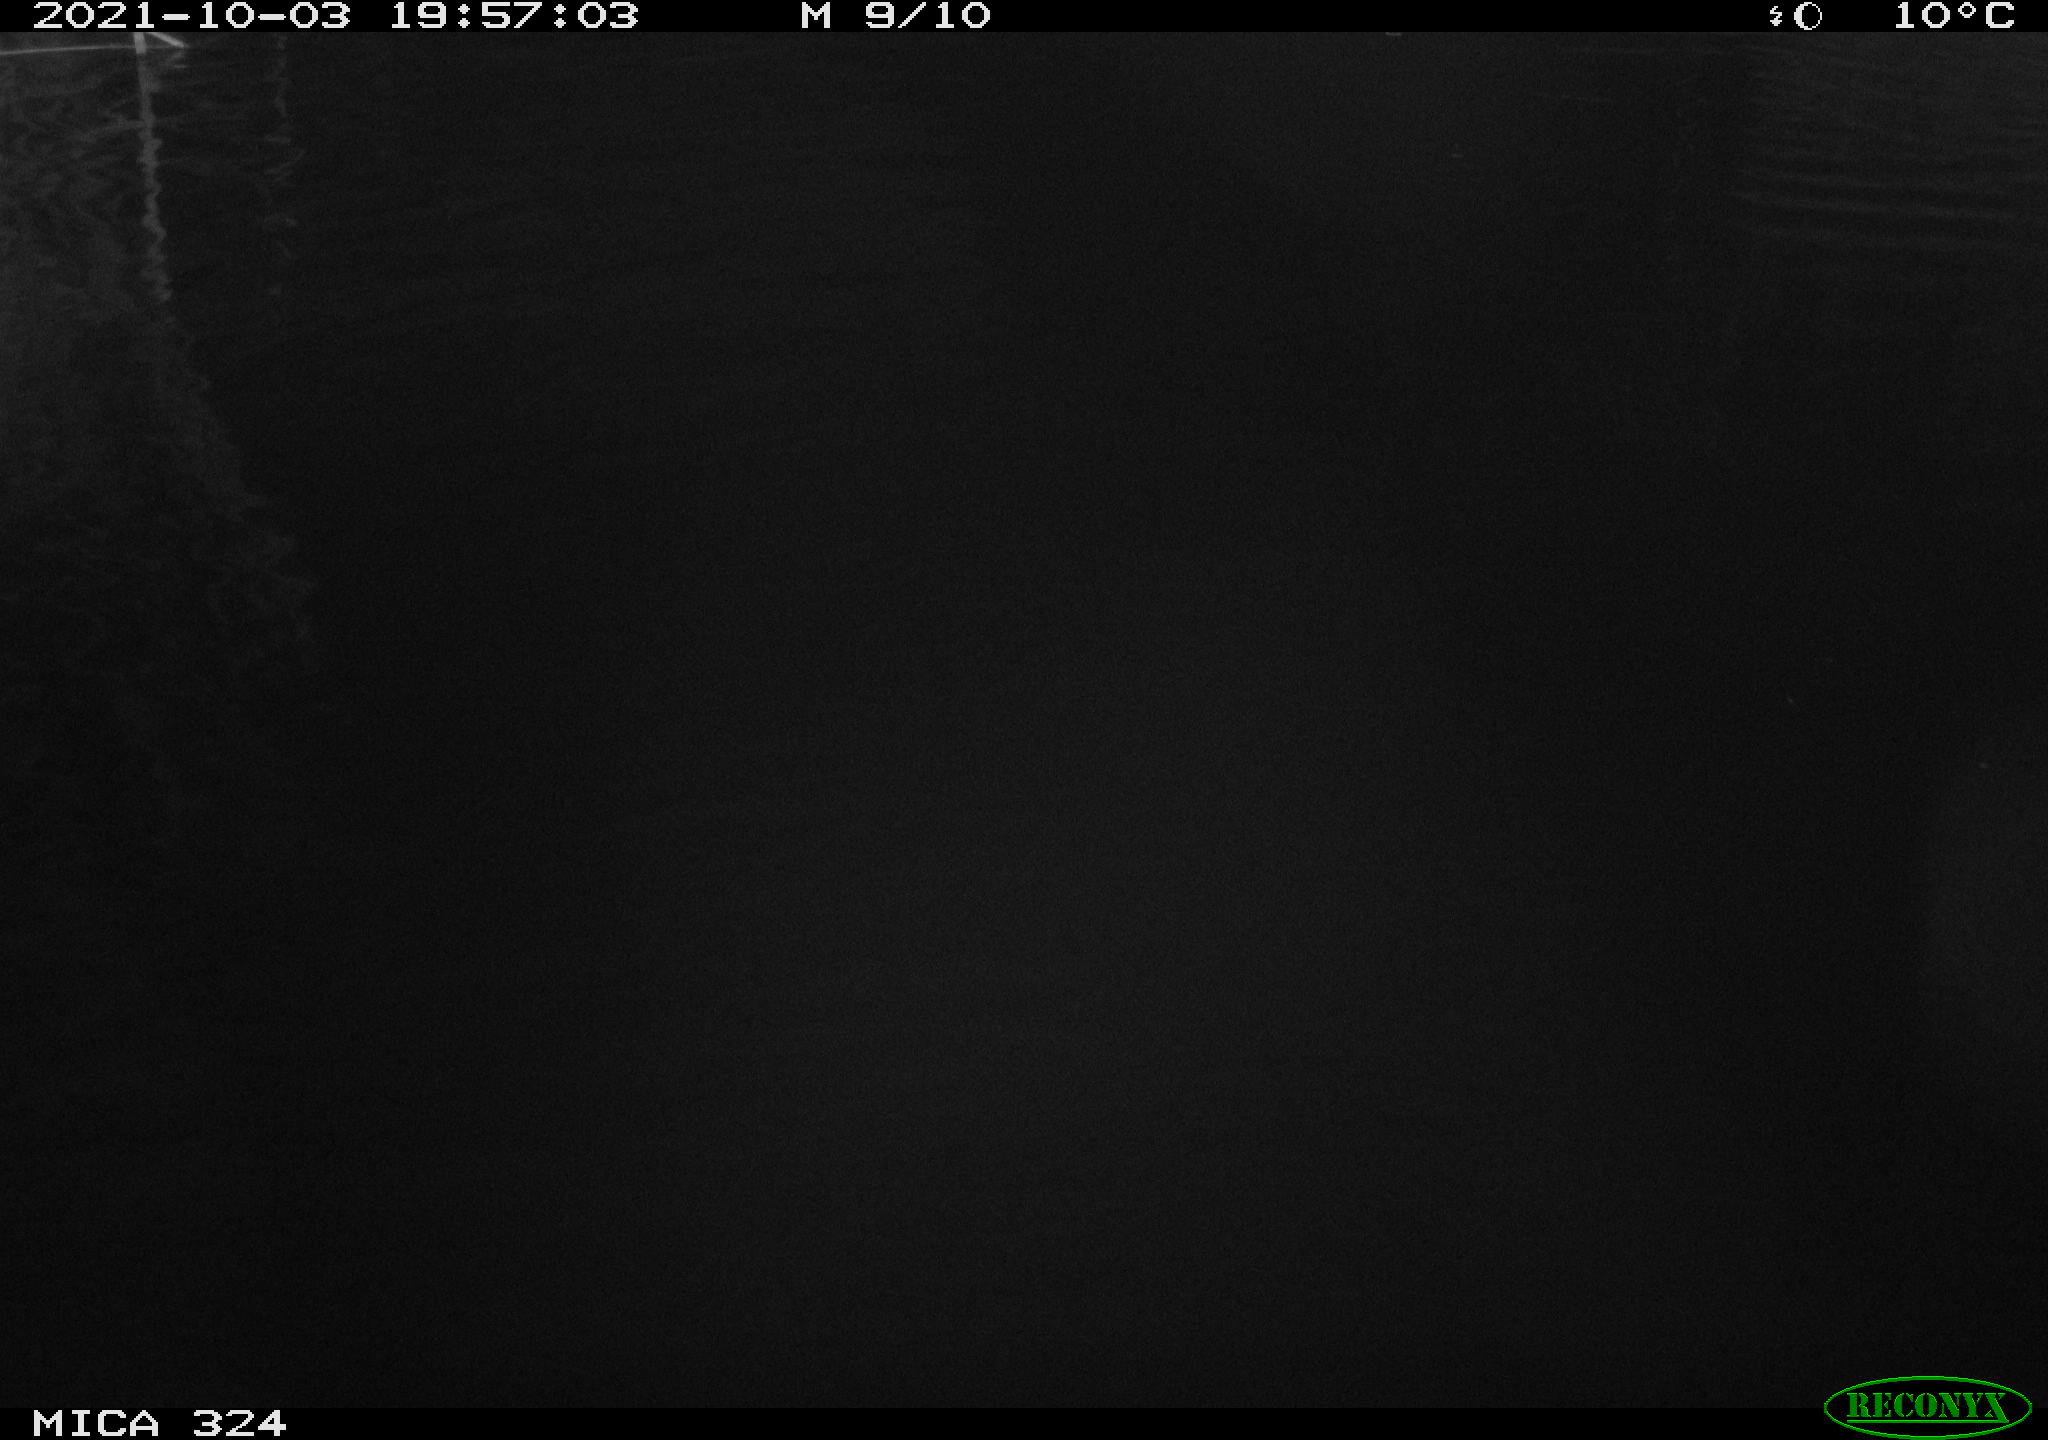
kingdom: Animalia
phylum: Chordata
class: Mammalia
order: Rodentia
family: Cricetidae
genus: Ondatra
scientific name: Ondatra zibethicus
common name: Muskrat
